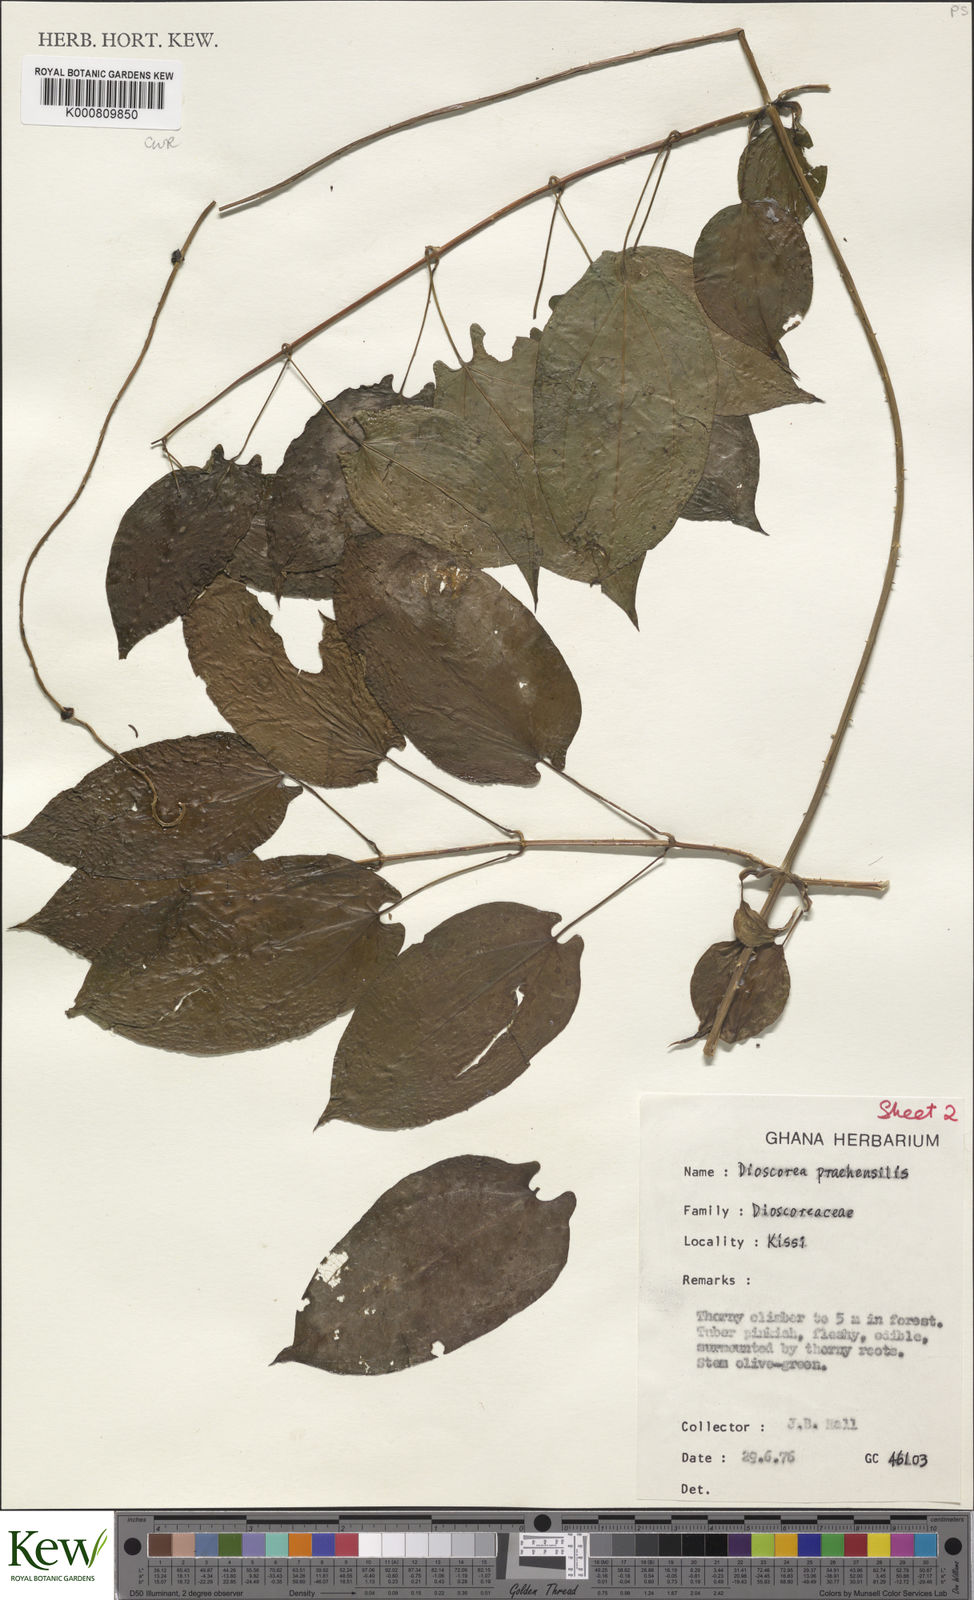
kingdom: Plantae
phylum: Tracheophyta
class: Liliopsida
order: Dioscoreales
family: Dioscoreaceae
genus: Dioscorea
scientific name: Dioscorea praehensilis
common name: Bush yam
